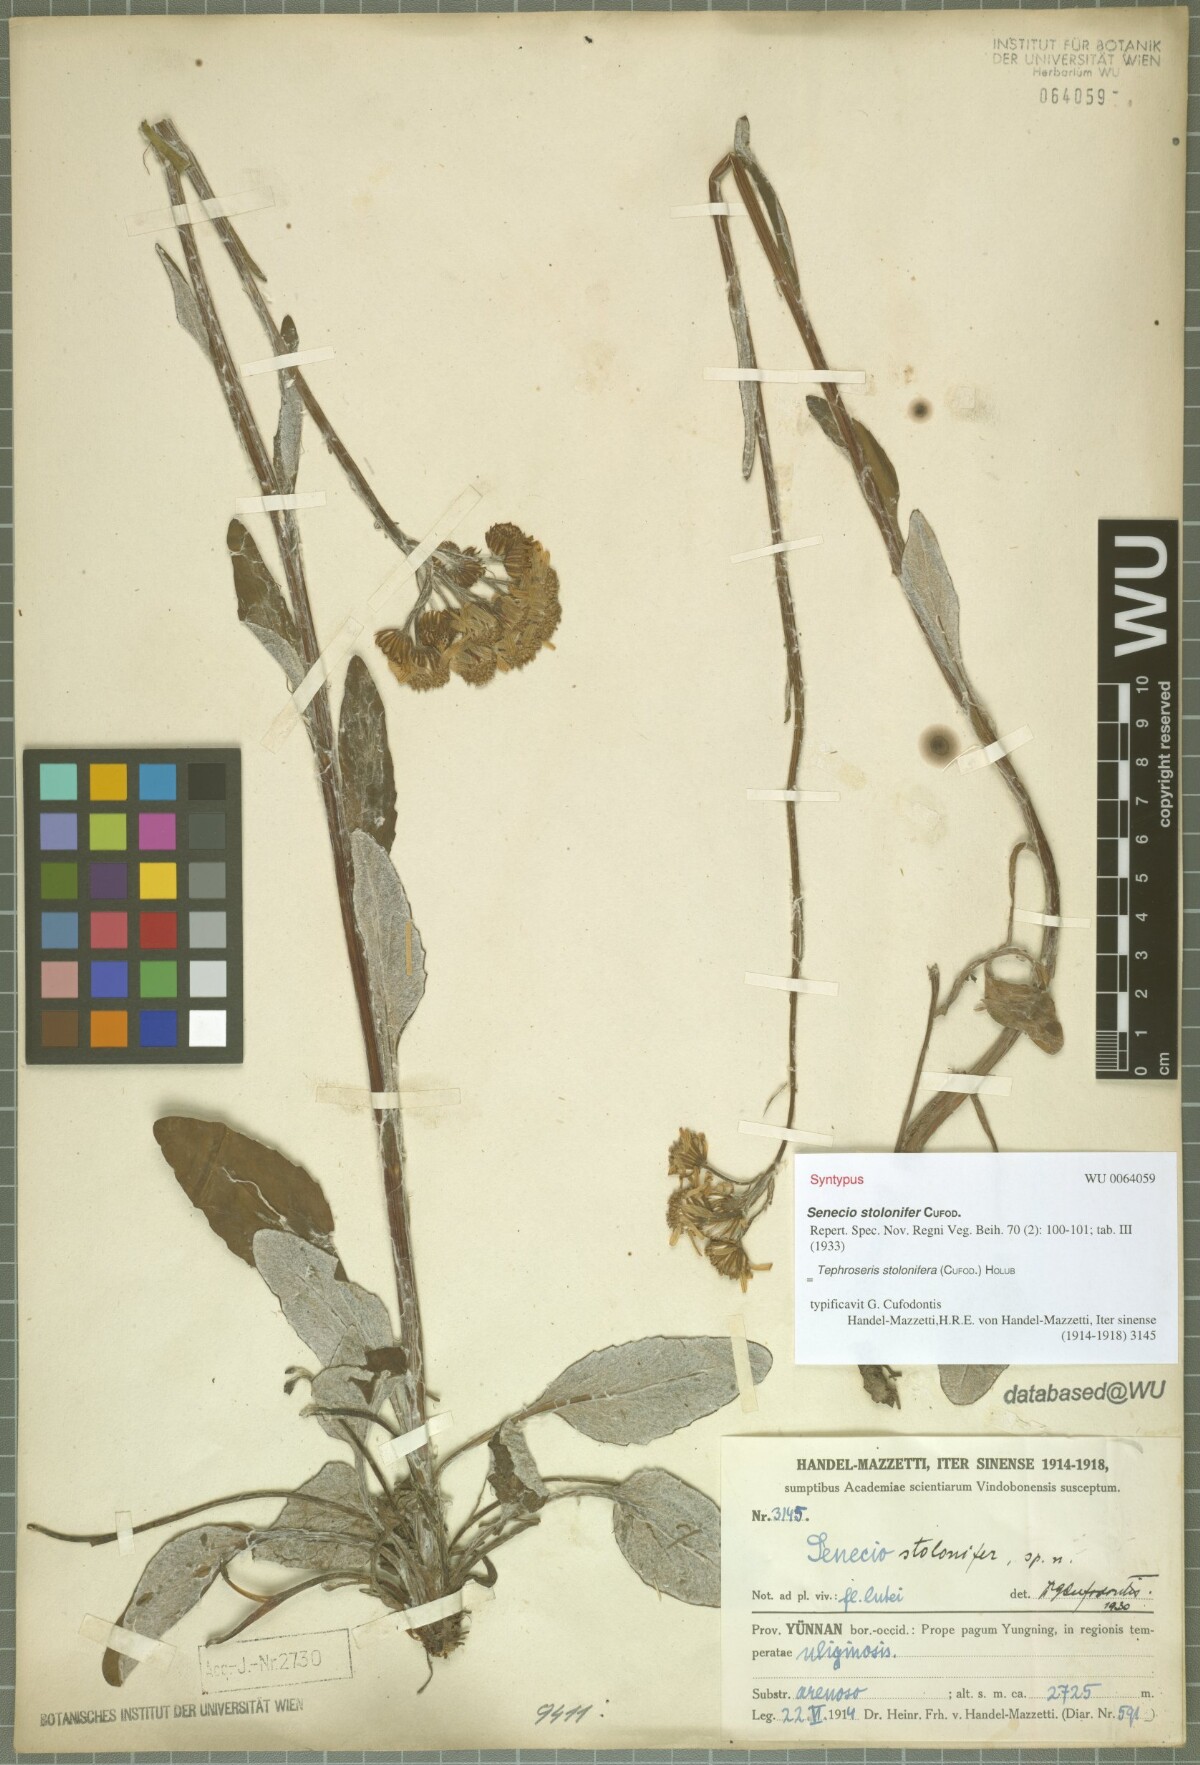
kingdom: Plantae
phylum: Tracheophyta
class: Magnoliopsida
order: Asterales
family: Asteraceae
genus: Tephroseris
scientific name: Tephroseris stolonifera
